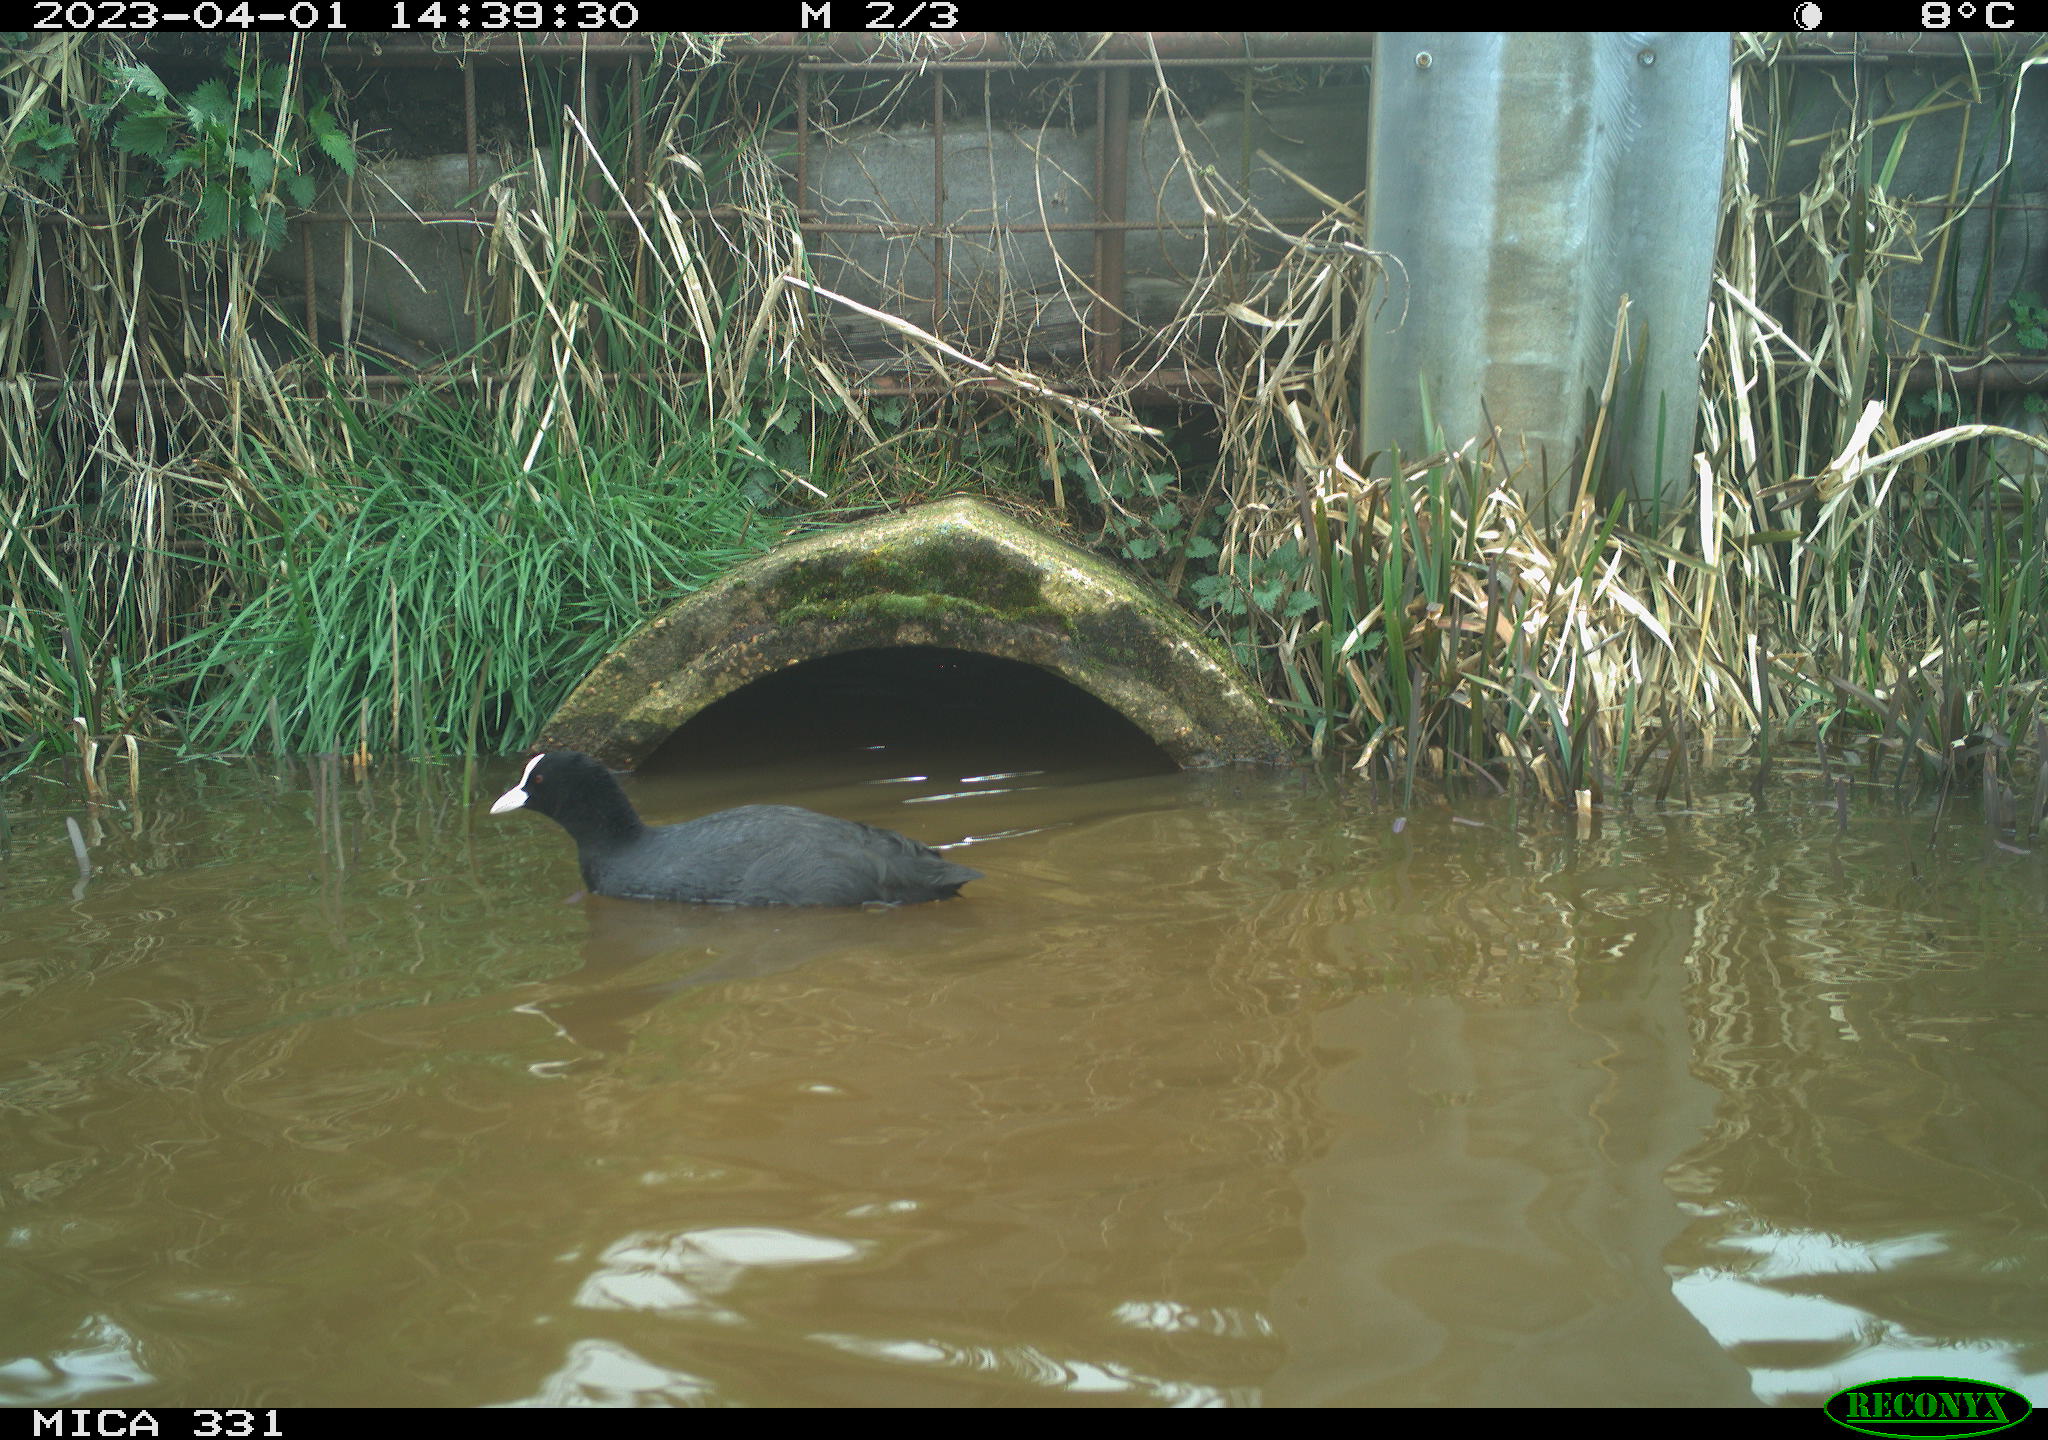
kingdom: Animalia
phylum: Chordata
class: Aves
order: Gruiformes
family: Rallidae
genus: Fulica
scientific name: Fulica atra
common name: Eurasian coot
